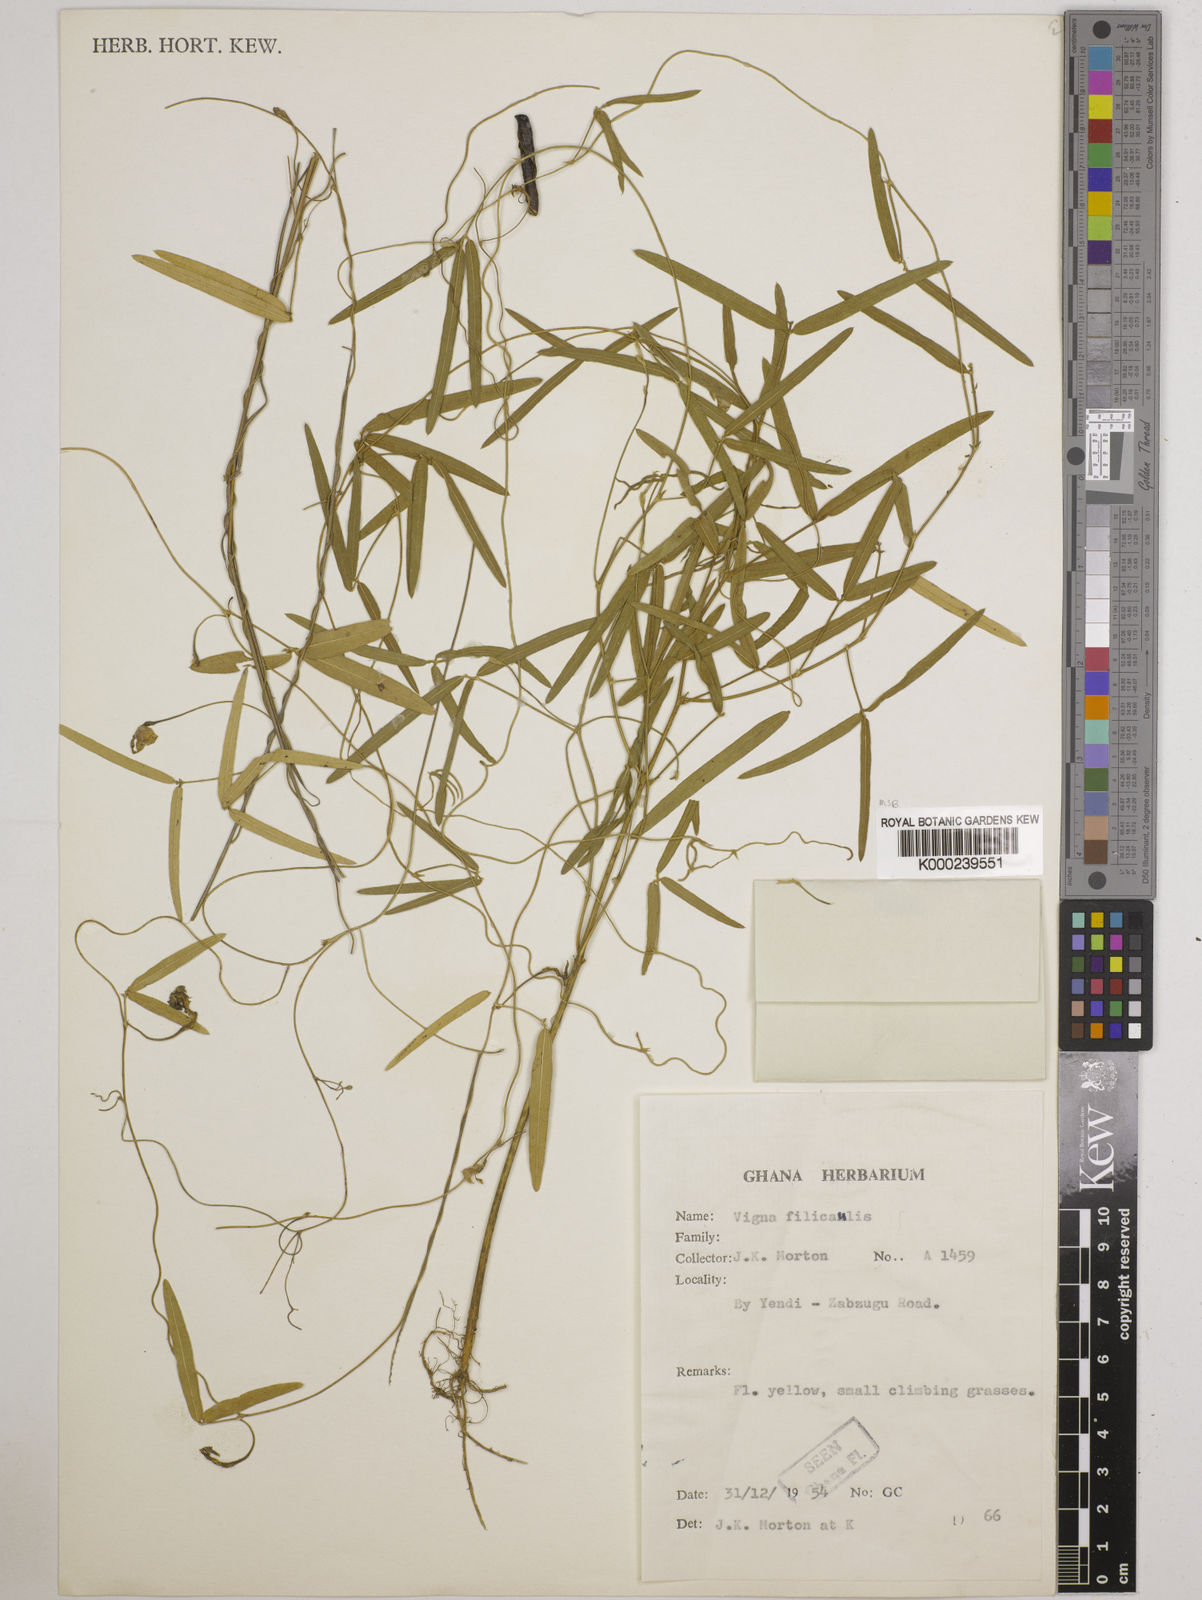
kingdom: Plantae
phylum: Tracheophyta
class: Magnoliopsida
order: Fabales
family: Fabaceae
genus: Vigna
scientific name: Vigna filicaulis
